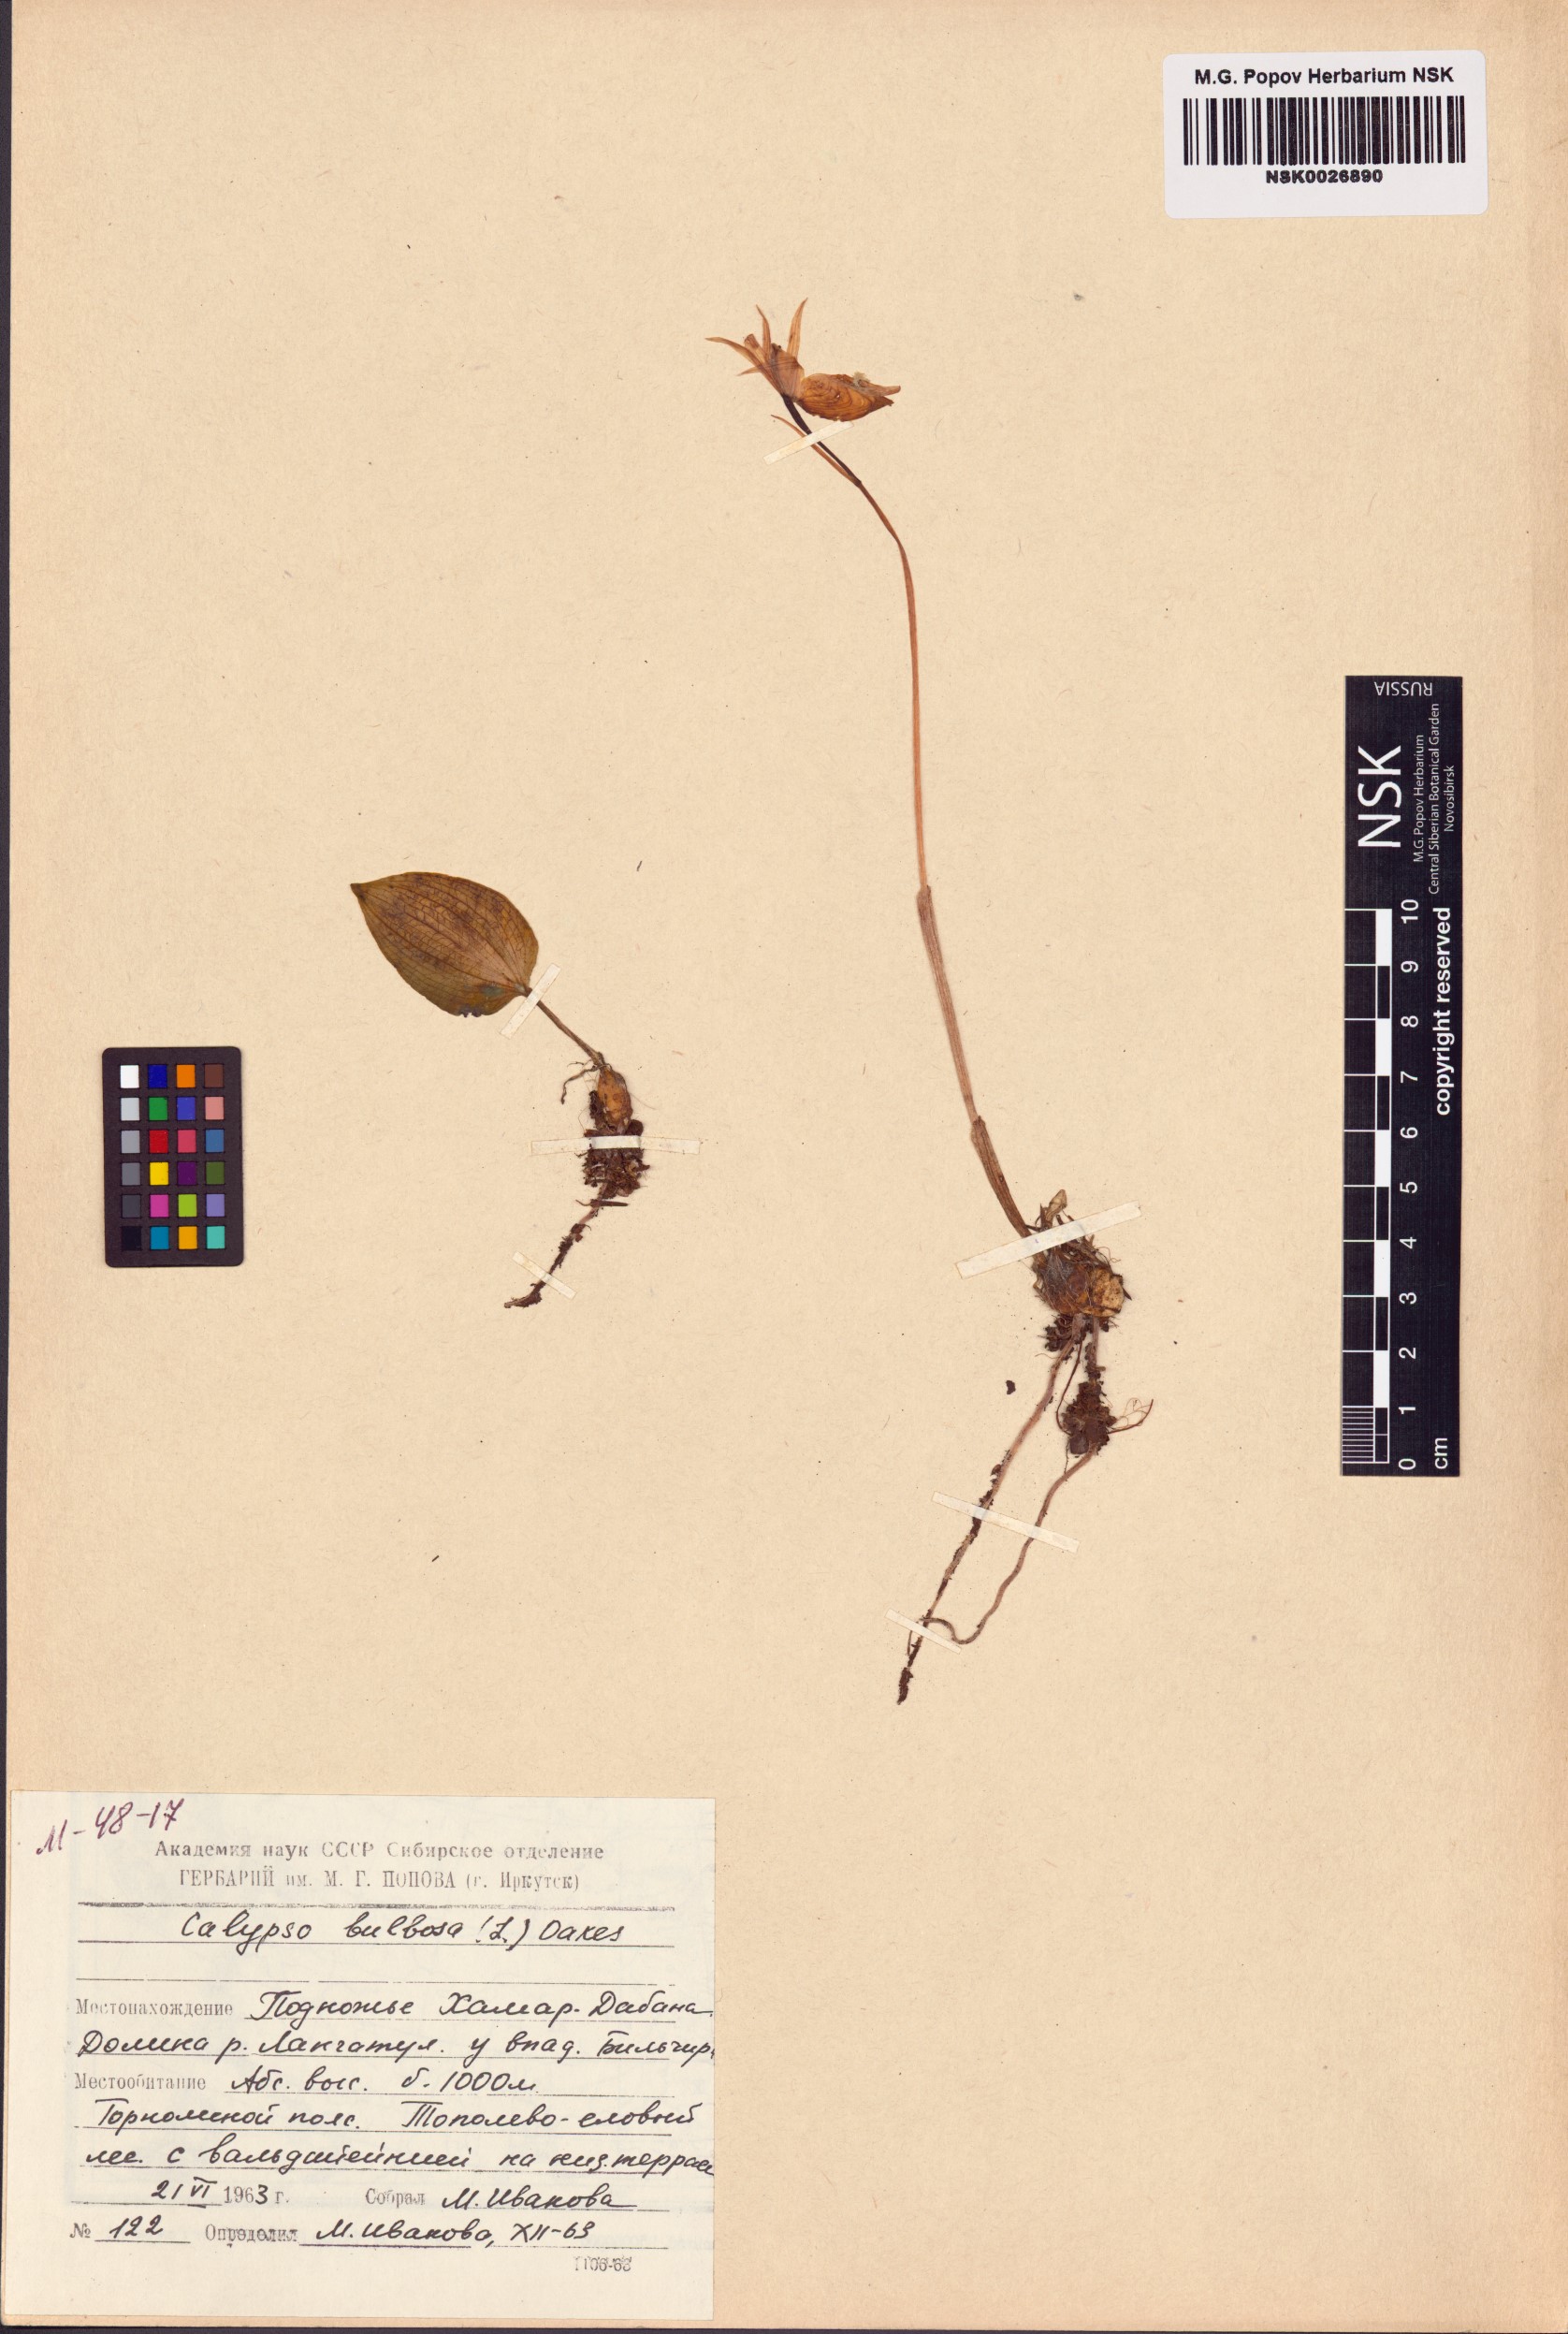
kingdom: Plantae
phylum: Tracheophyta
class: Liliopsida
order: Asparagales
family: Orchidaceae
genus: Calypso
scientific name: Calypso bulbosa
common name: Calypso
